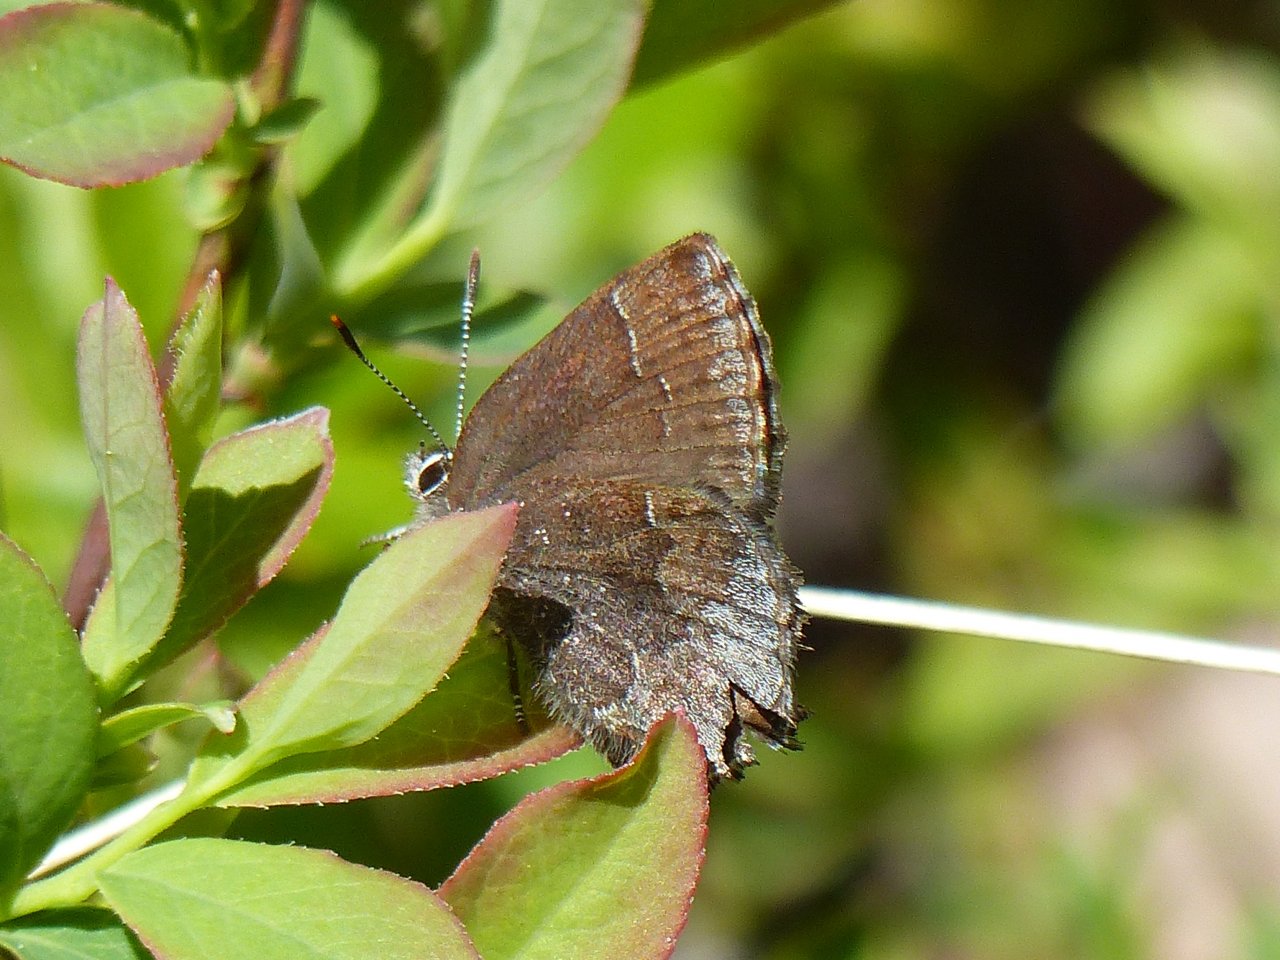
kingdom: Animalia
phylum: Arthropoda
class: Insecta
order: Lepidoptera
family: Lycaenidae
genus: Callophrys
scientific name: Callophrys polios
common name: Hoary Elfin
